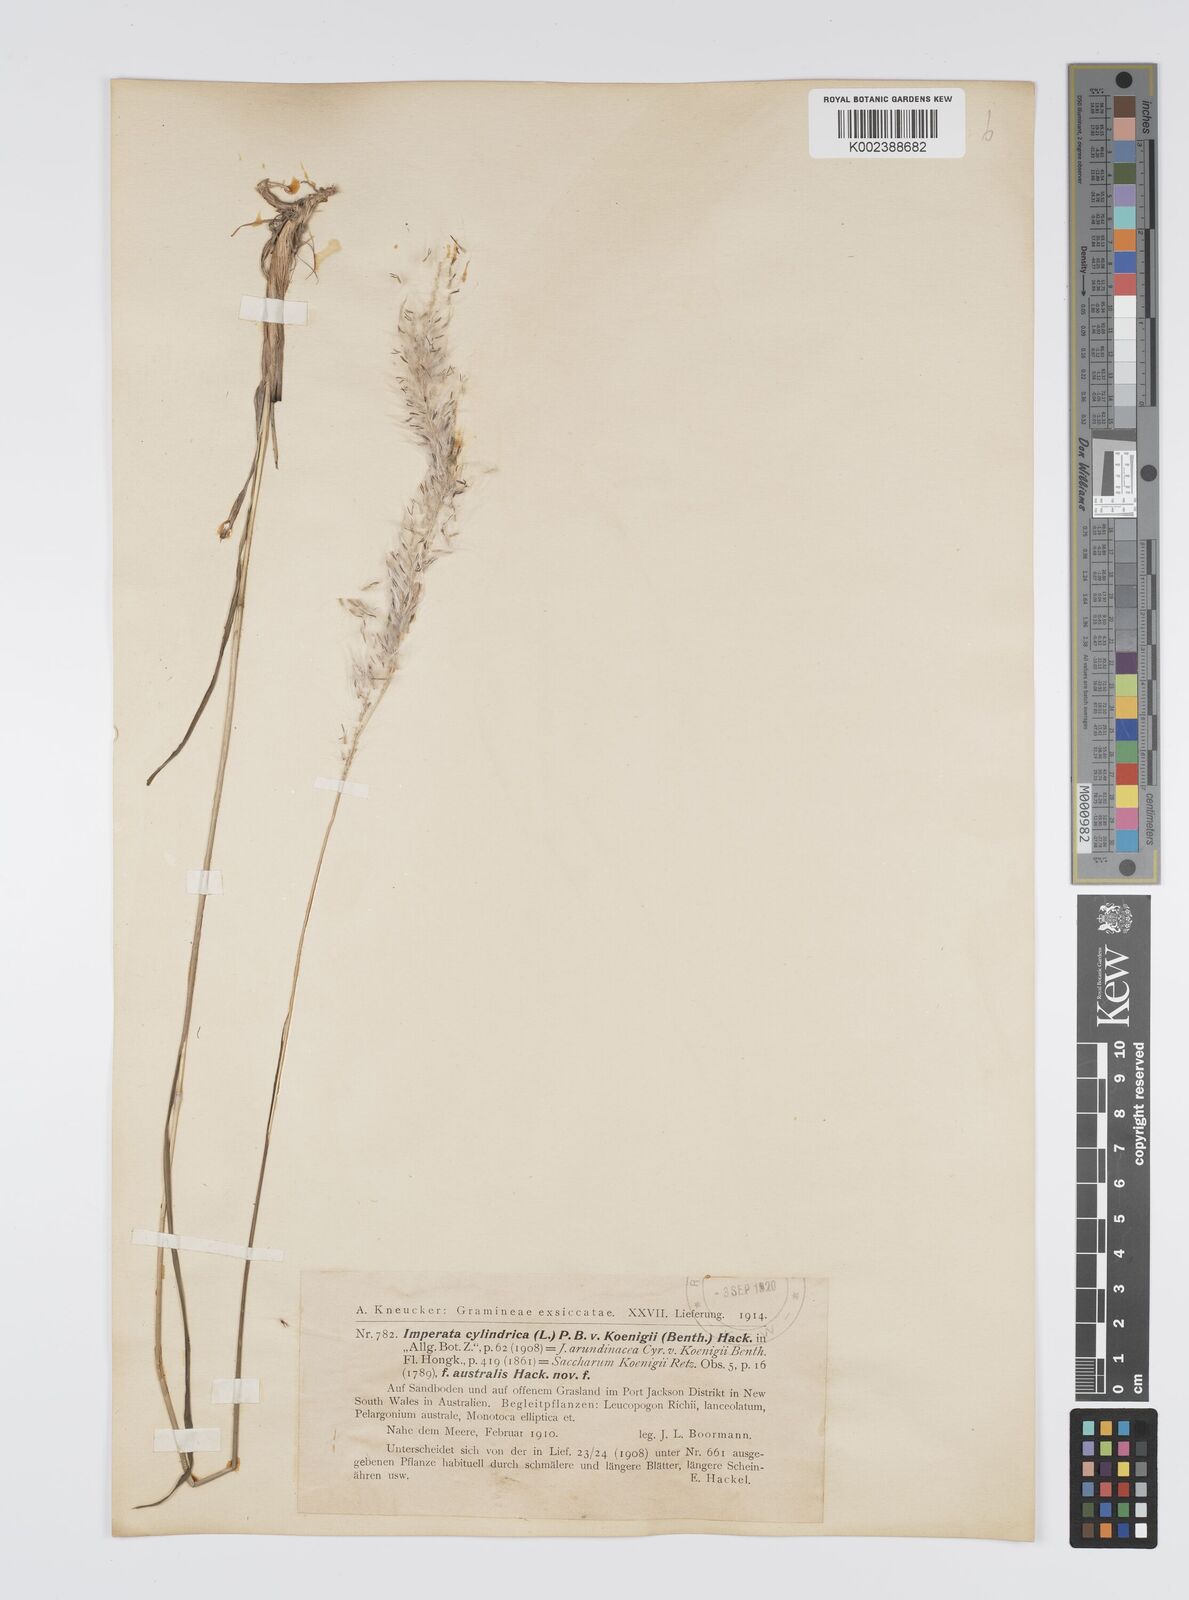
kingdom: Plantae
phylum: Tracheophyta
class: Liliopsida
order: Poales
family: Poaceae
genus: Imperata
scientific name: Imperata cylindrica
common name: Cogongrass
